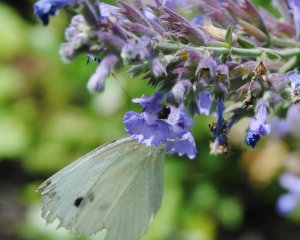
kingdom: Animalia
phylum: Arthropoda
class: Insecta
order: Lepidoptera
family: Pieridae
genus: Pieris
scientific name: Pieris rapae
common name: Cabbage White
